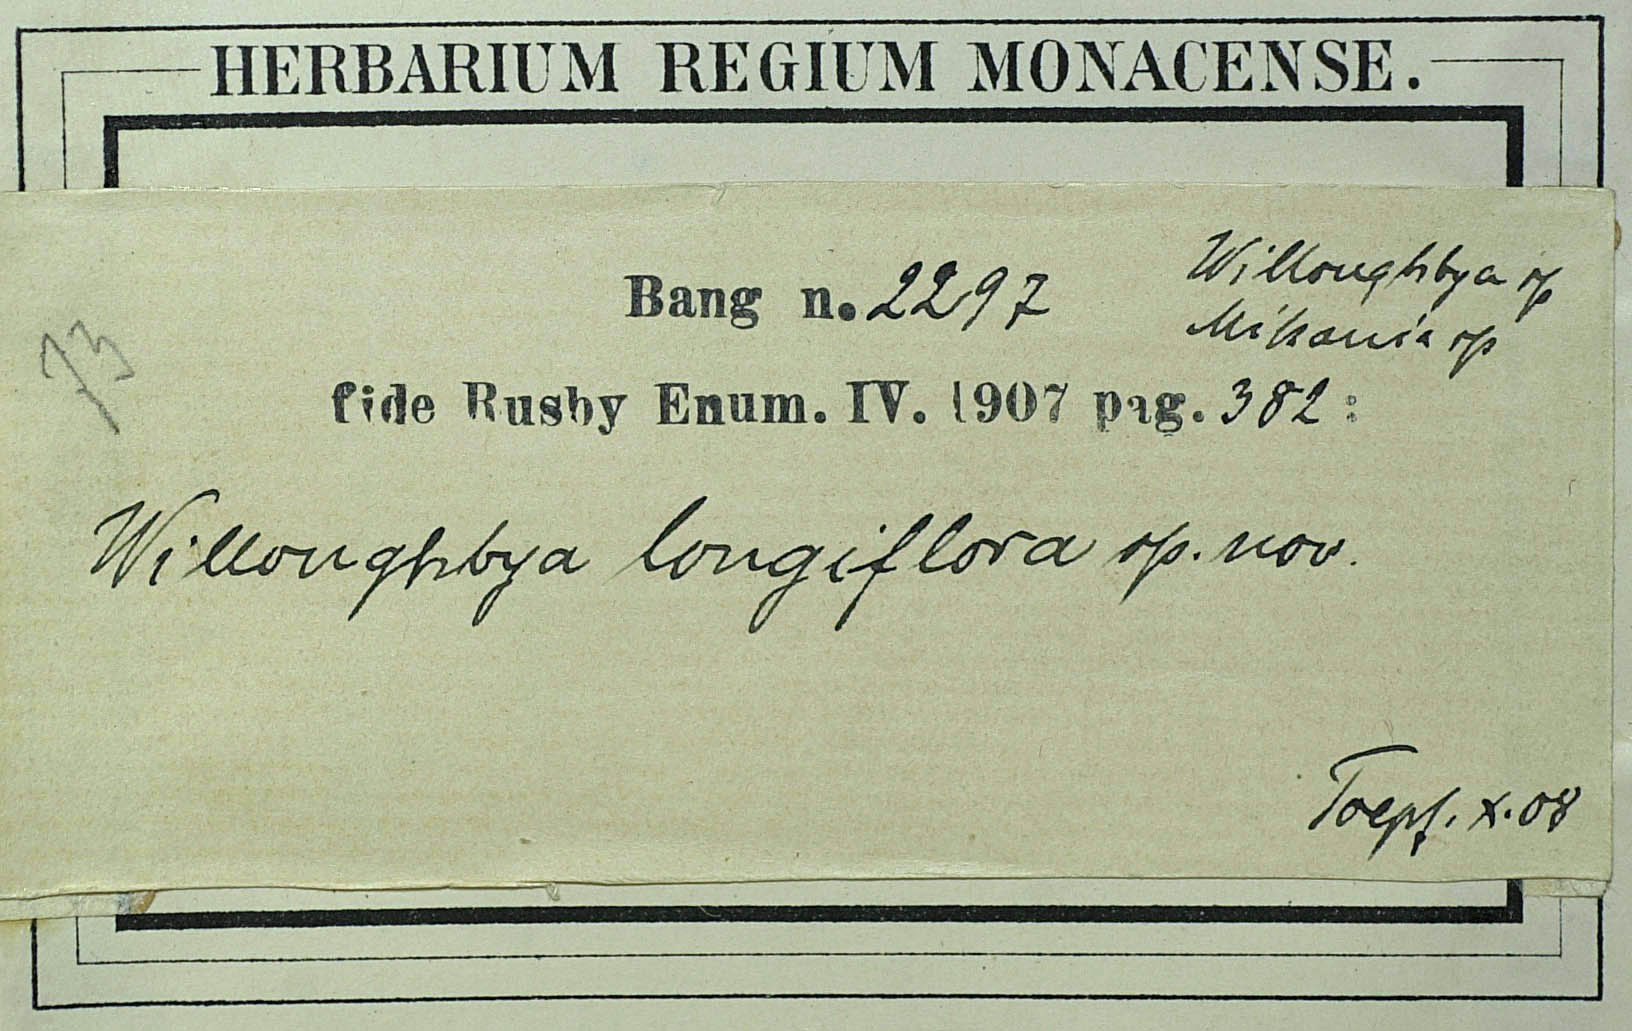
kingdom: Plantae
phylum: Tracheophyta
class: Magnoliopsida
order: Asterales
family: Asteraceae
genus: Mikania
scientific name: Mikania longiflora
